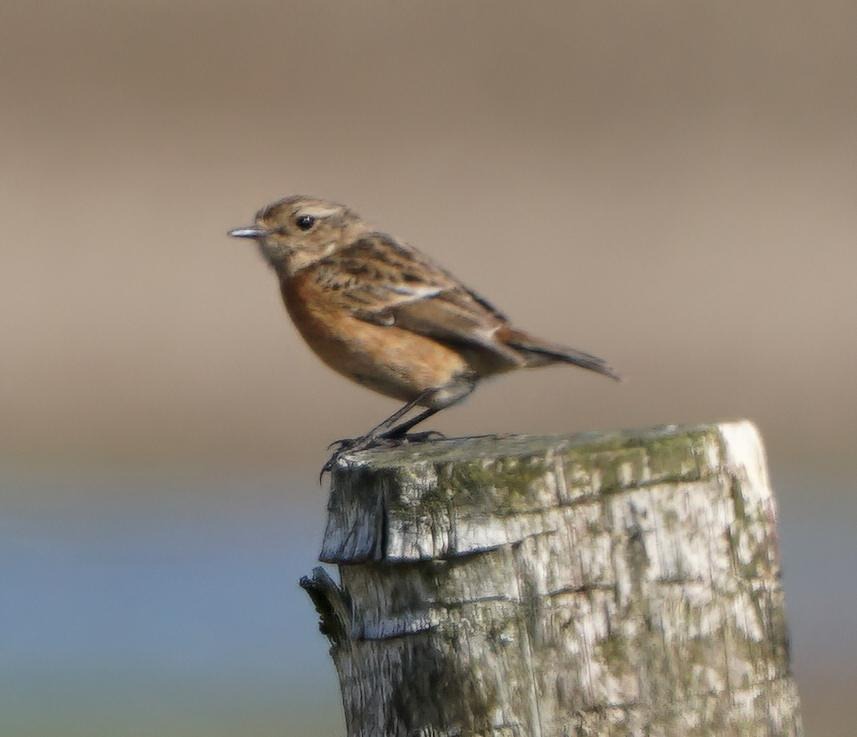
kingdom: Animalia
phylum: Chordata
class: Aves
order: Passeriformes
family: Muscicapidae
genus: Saxicola
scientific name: Saxicola rubicola
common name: Sortstrubet bynkefugl
